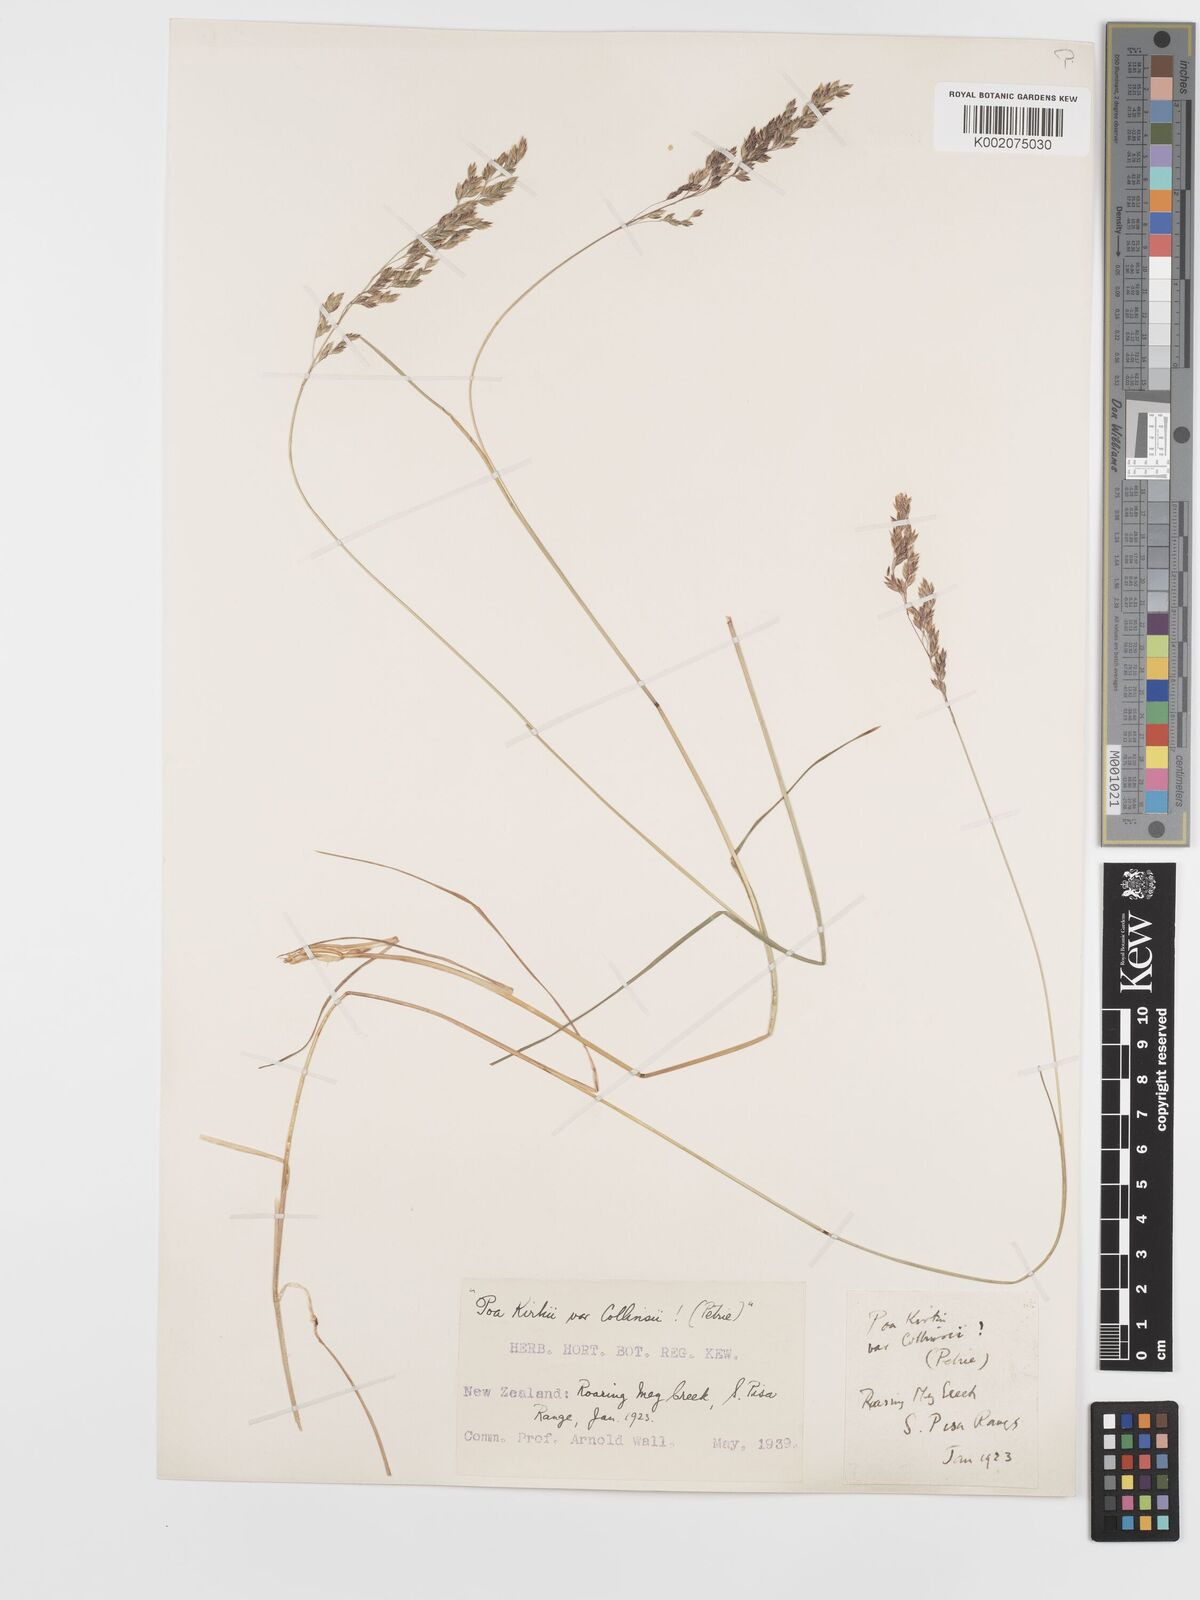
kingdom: Plantae
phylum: Tracheophyta
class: Liliopsida
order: Poales
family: Poaceae
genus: Poa
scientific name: Poa kirkii
